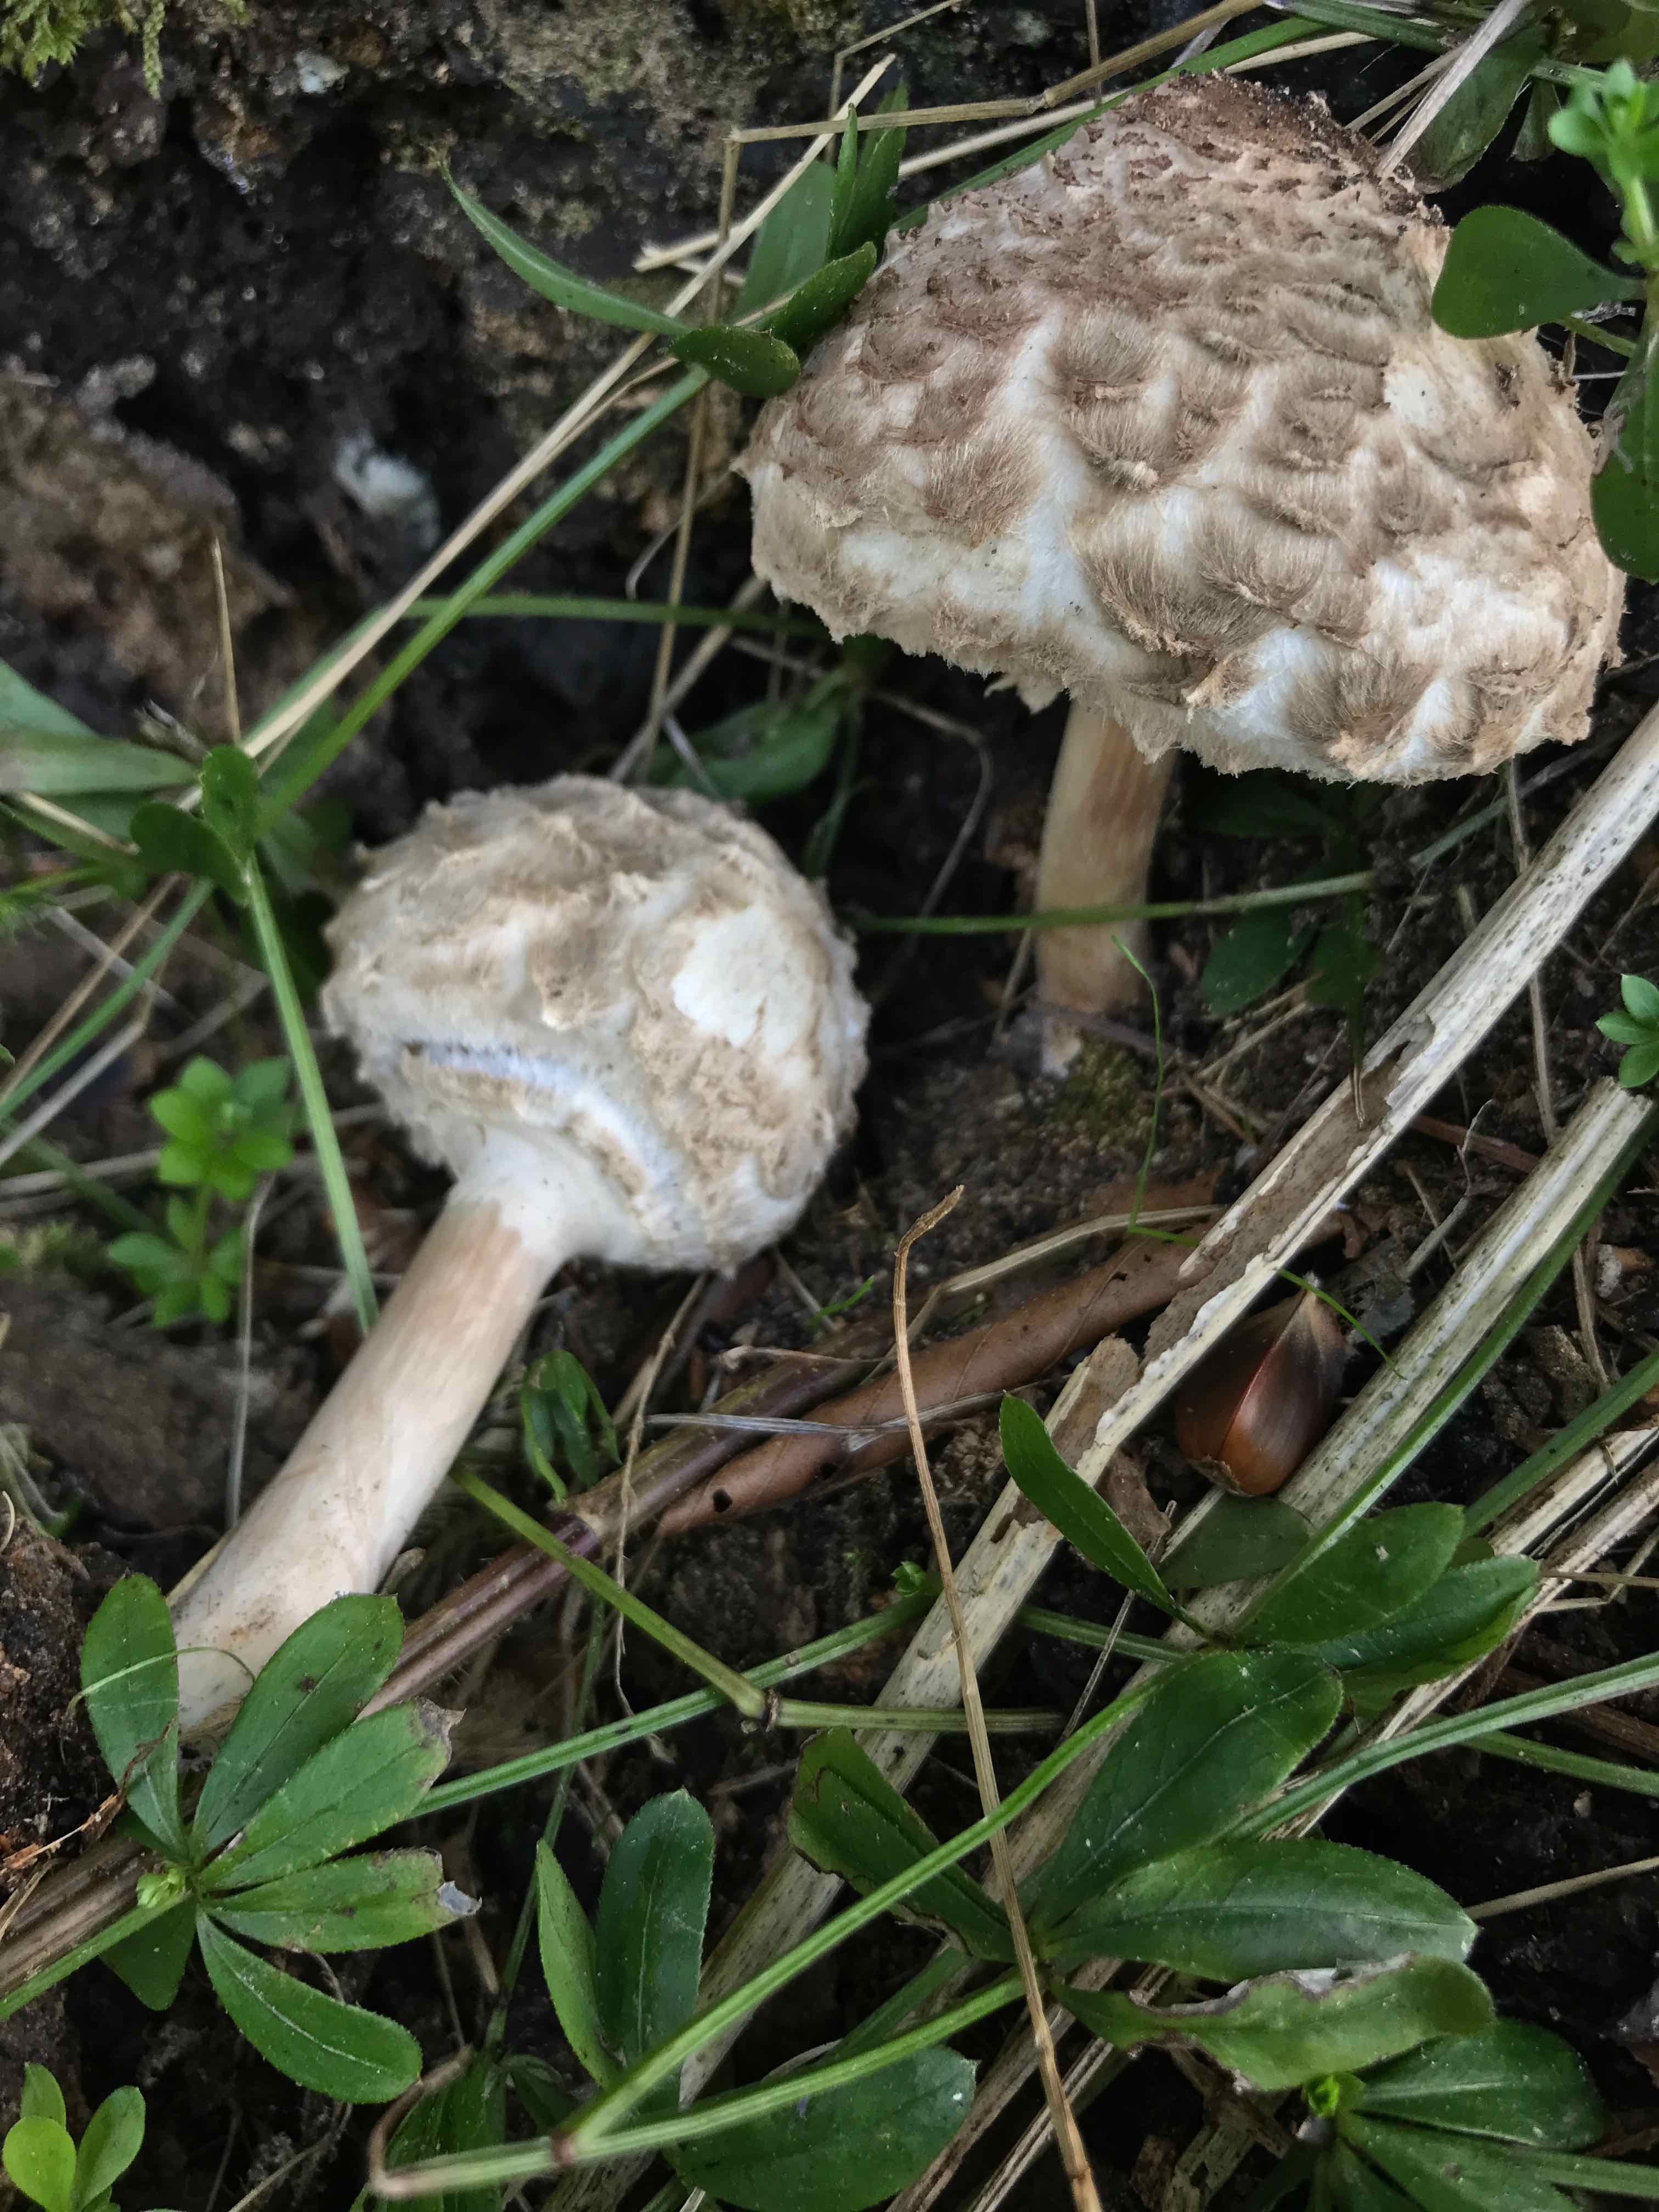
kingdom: Fungi
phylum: Basidiomycota
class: Agaricomycetes
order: Agaricales
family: Agaricaceae
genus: Chlorophyllum
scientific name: Chlorophyllum olivieri
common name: almindelig rabarberhat
